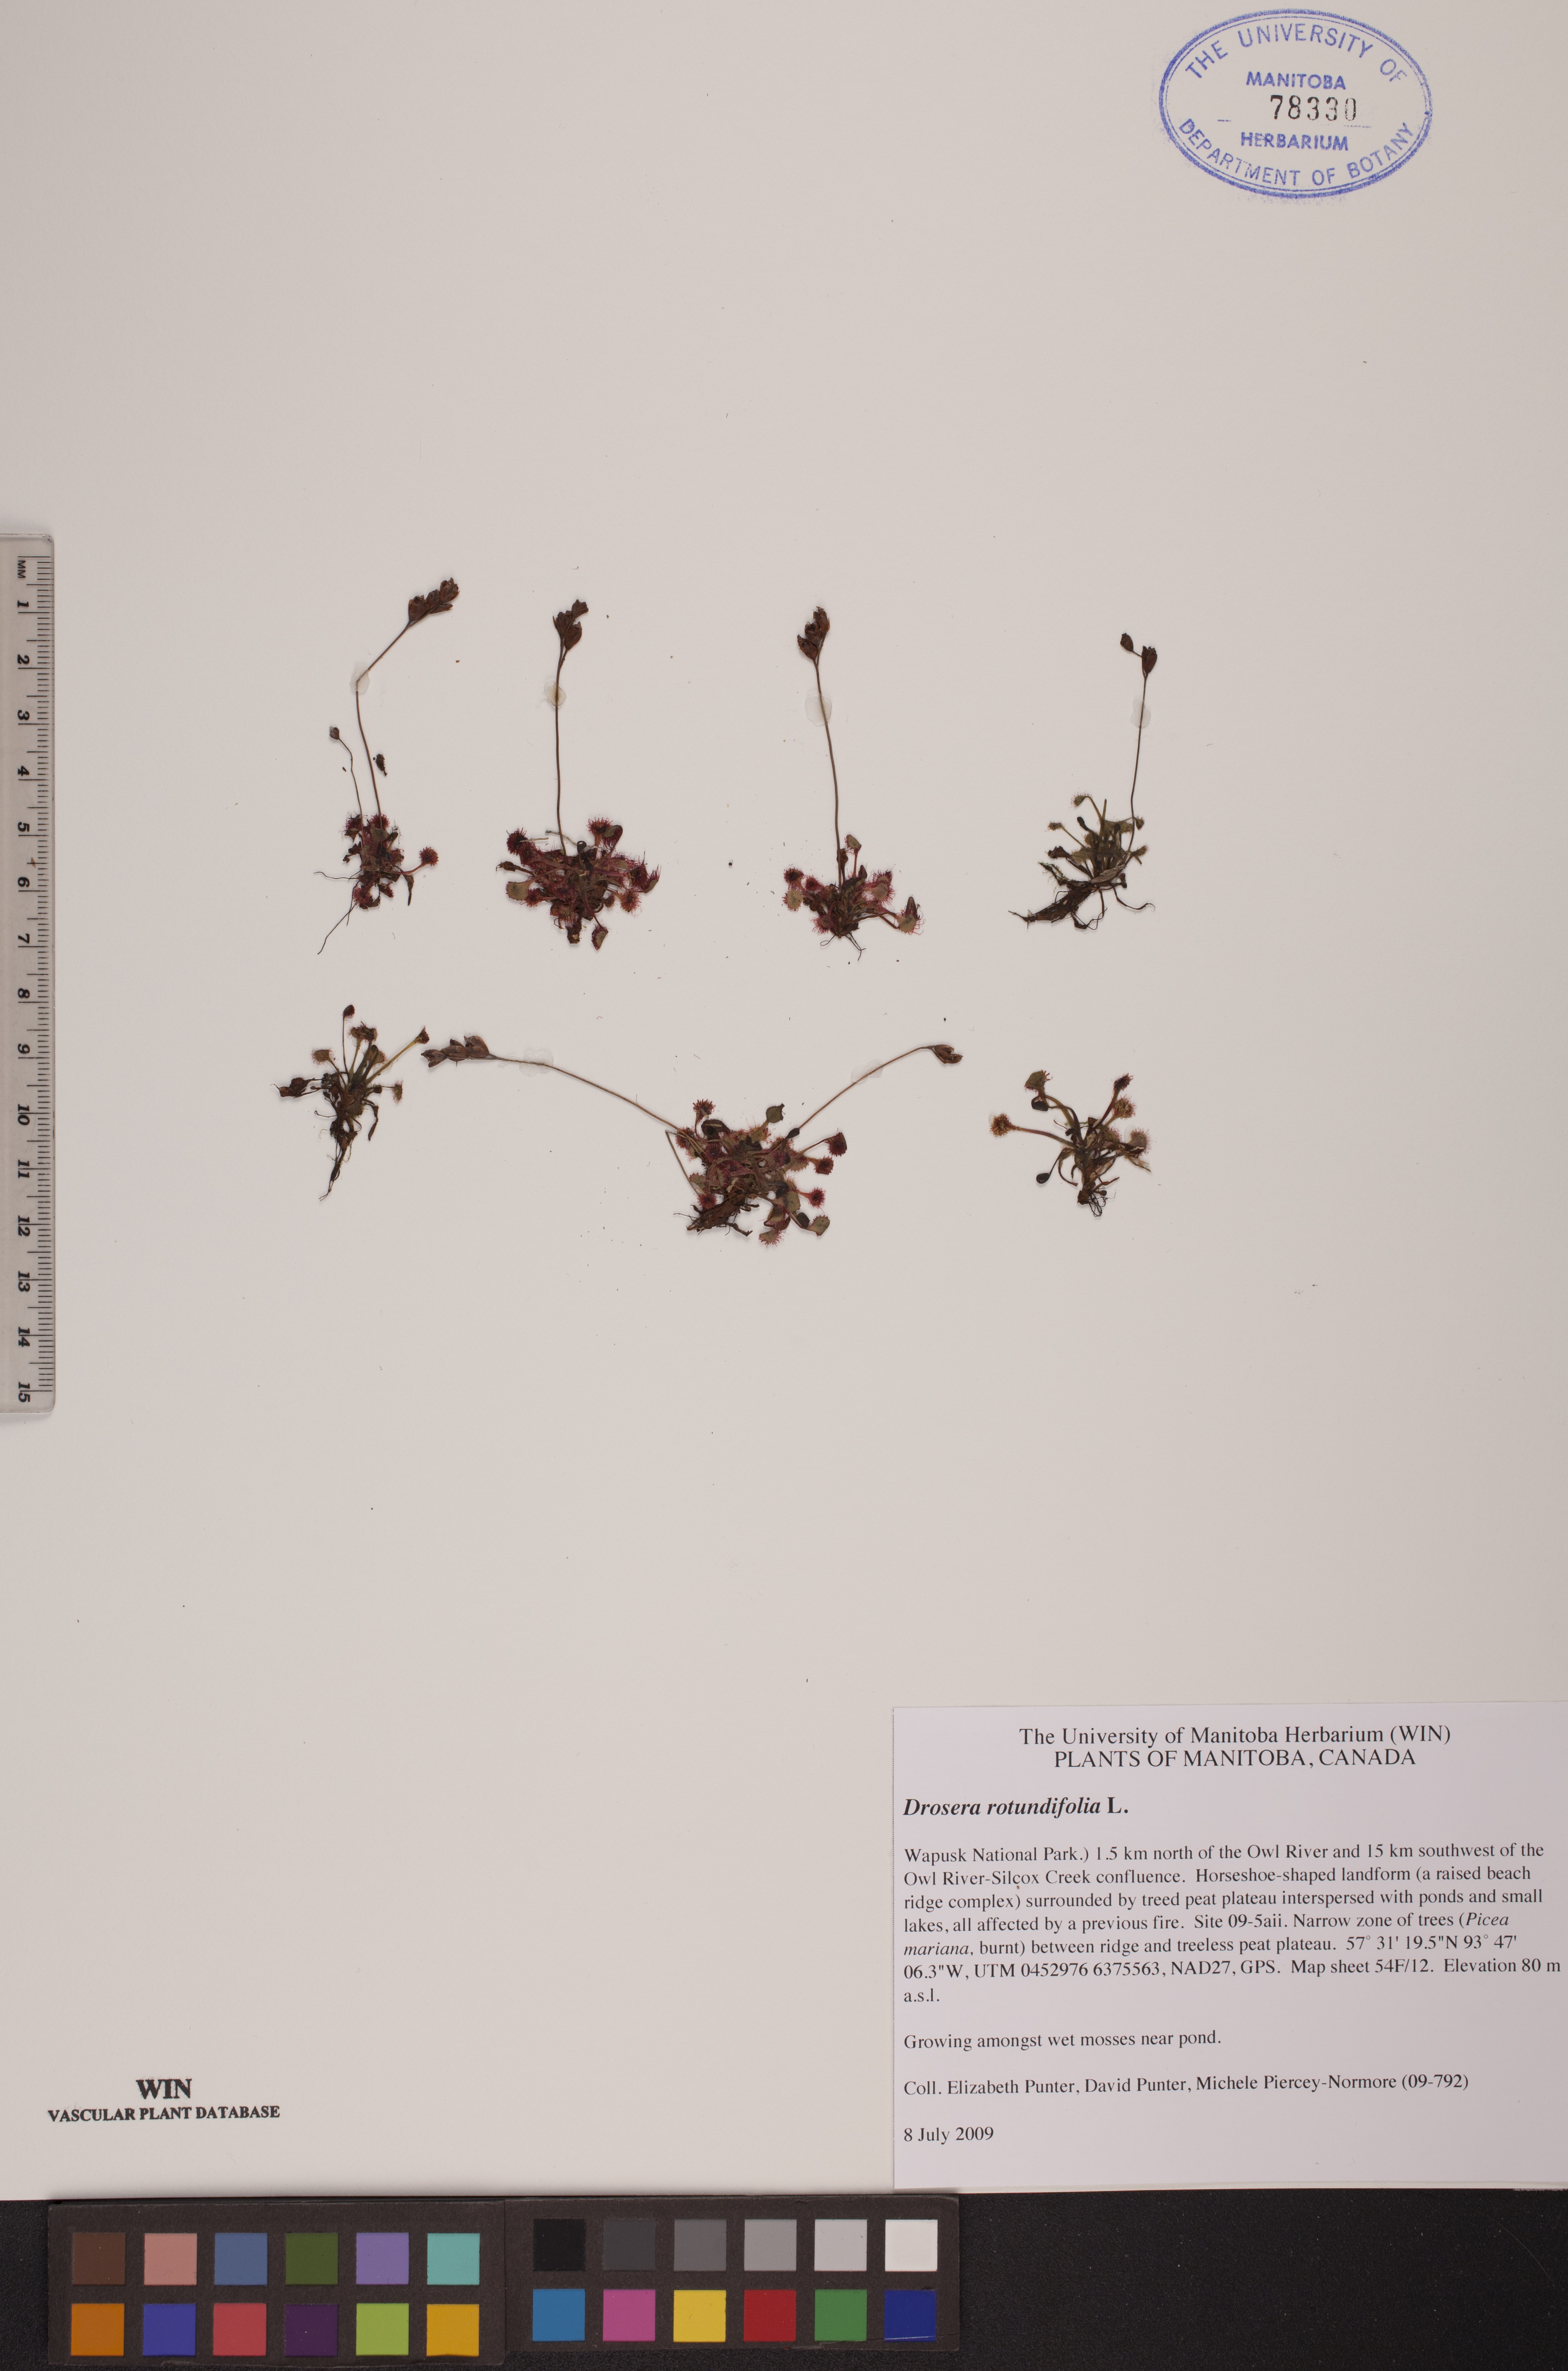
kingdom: Plantae
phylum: Tracheophyta
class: Magnoliopsida
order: Caryophyllales
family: Droseraceae
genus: Drosera
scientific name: Drosera rotundifolia
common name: Round-leaved sundew
